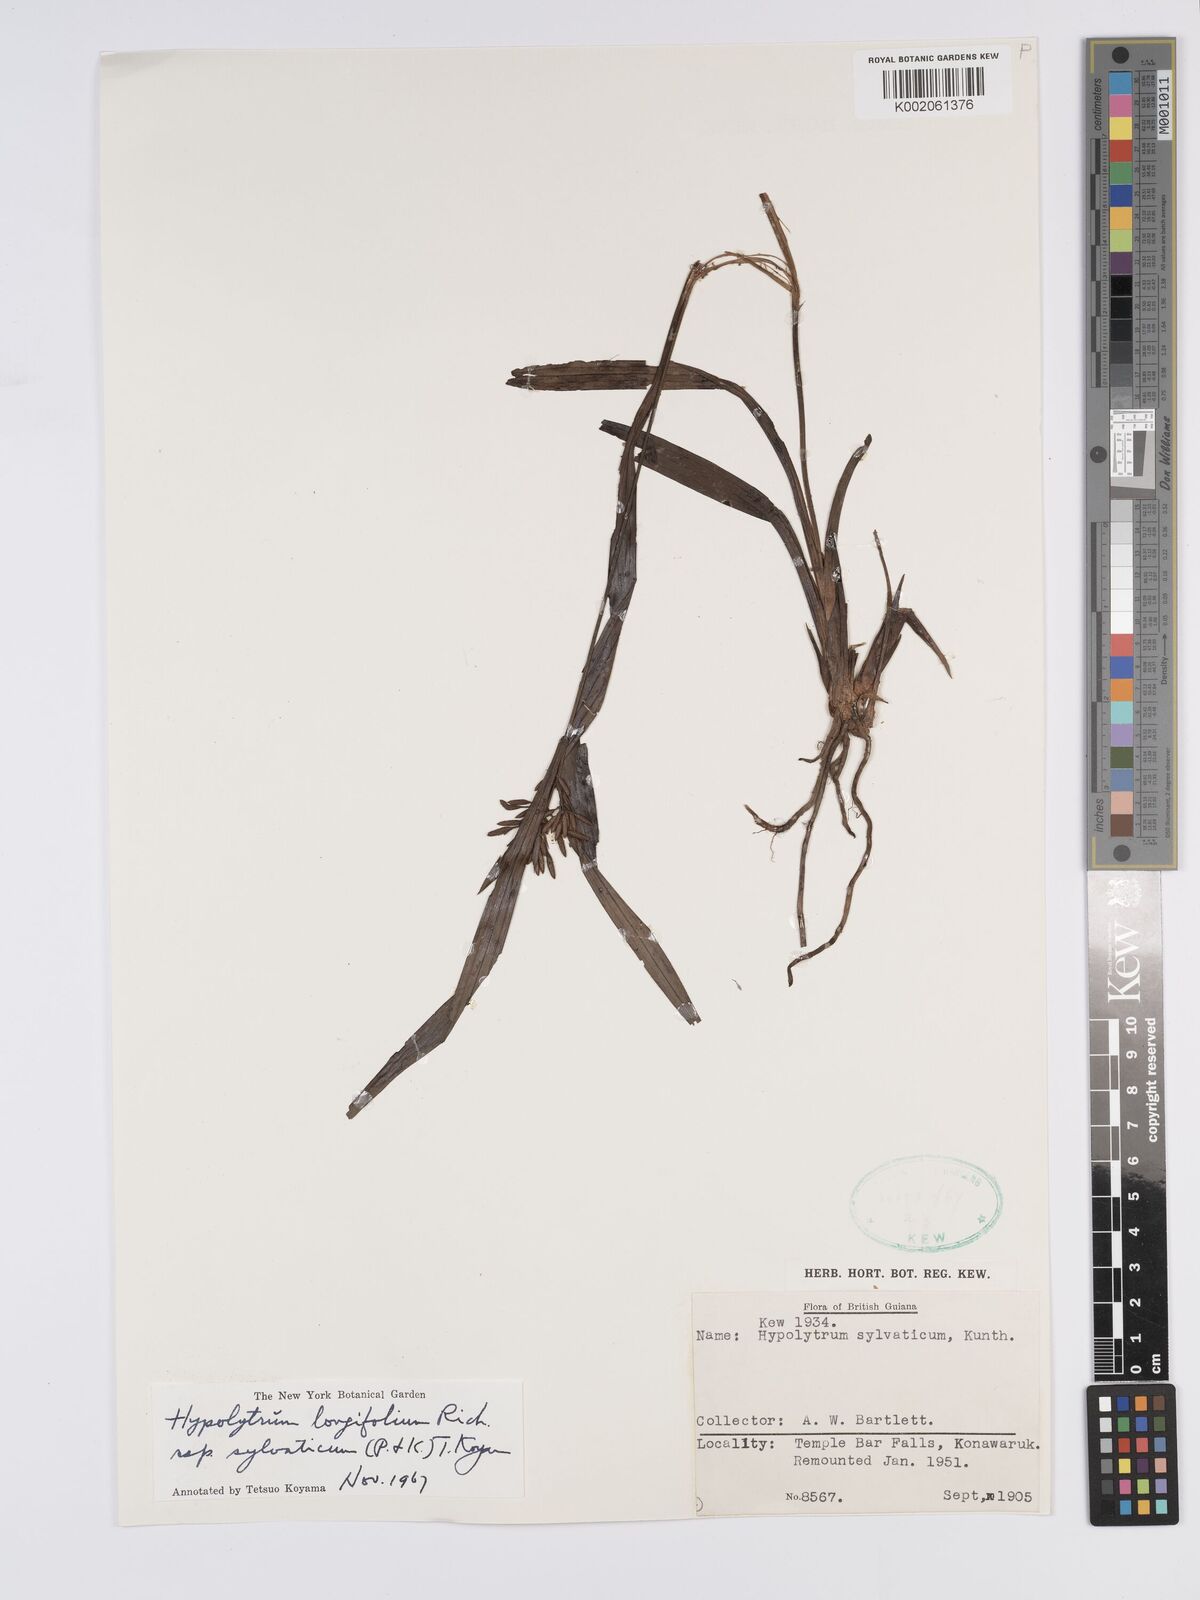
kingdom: Plantae
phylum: Tracheophyta
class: Liliopsida
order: Poales
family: Cyperaceae
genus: Hypolytrum
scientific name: Hypolytrum longifolium
